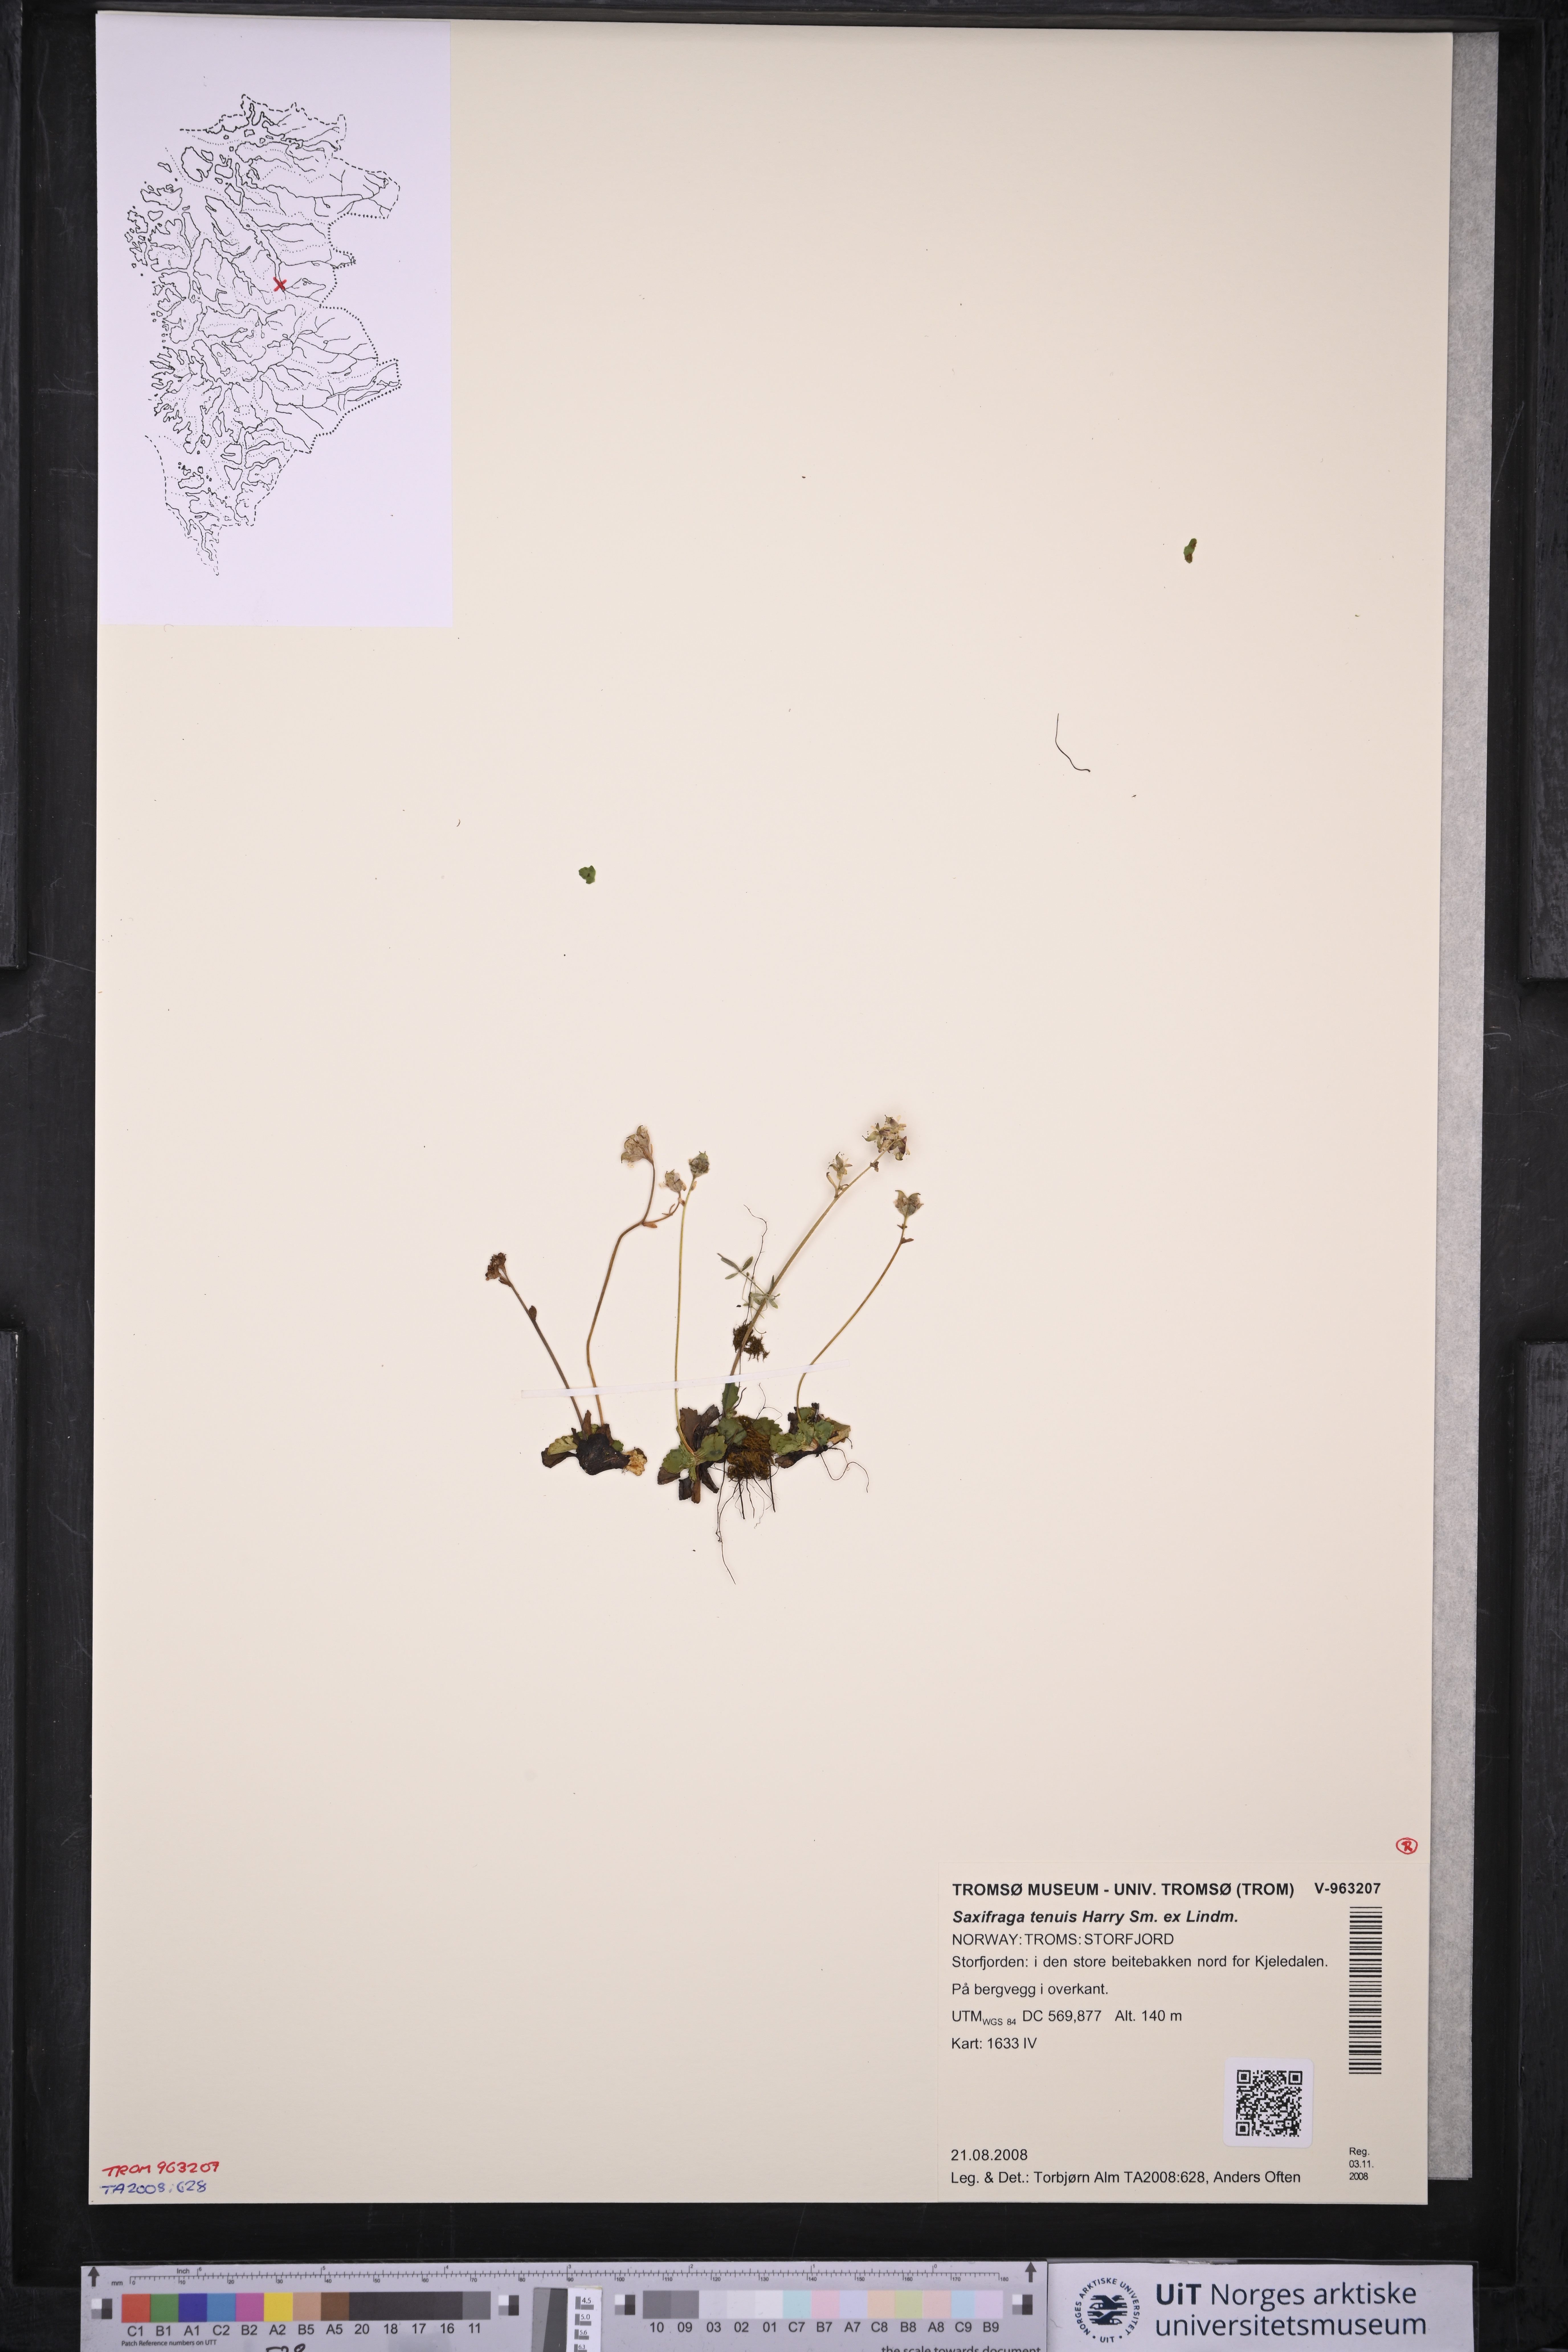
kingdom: Plantae
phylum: Tracheophyta
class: Magnoliopsida
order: Saxifragales
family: Saxifragaceae
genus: Micranthes
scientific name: Micranthes tenuis
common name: Ottertail pass saxifrage
